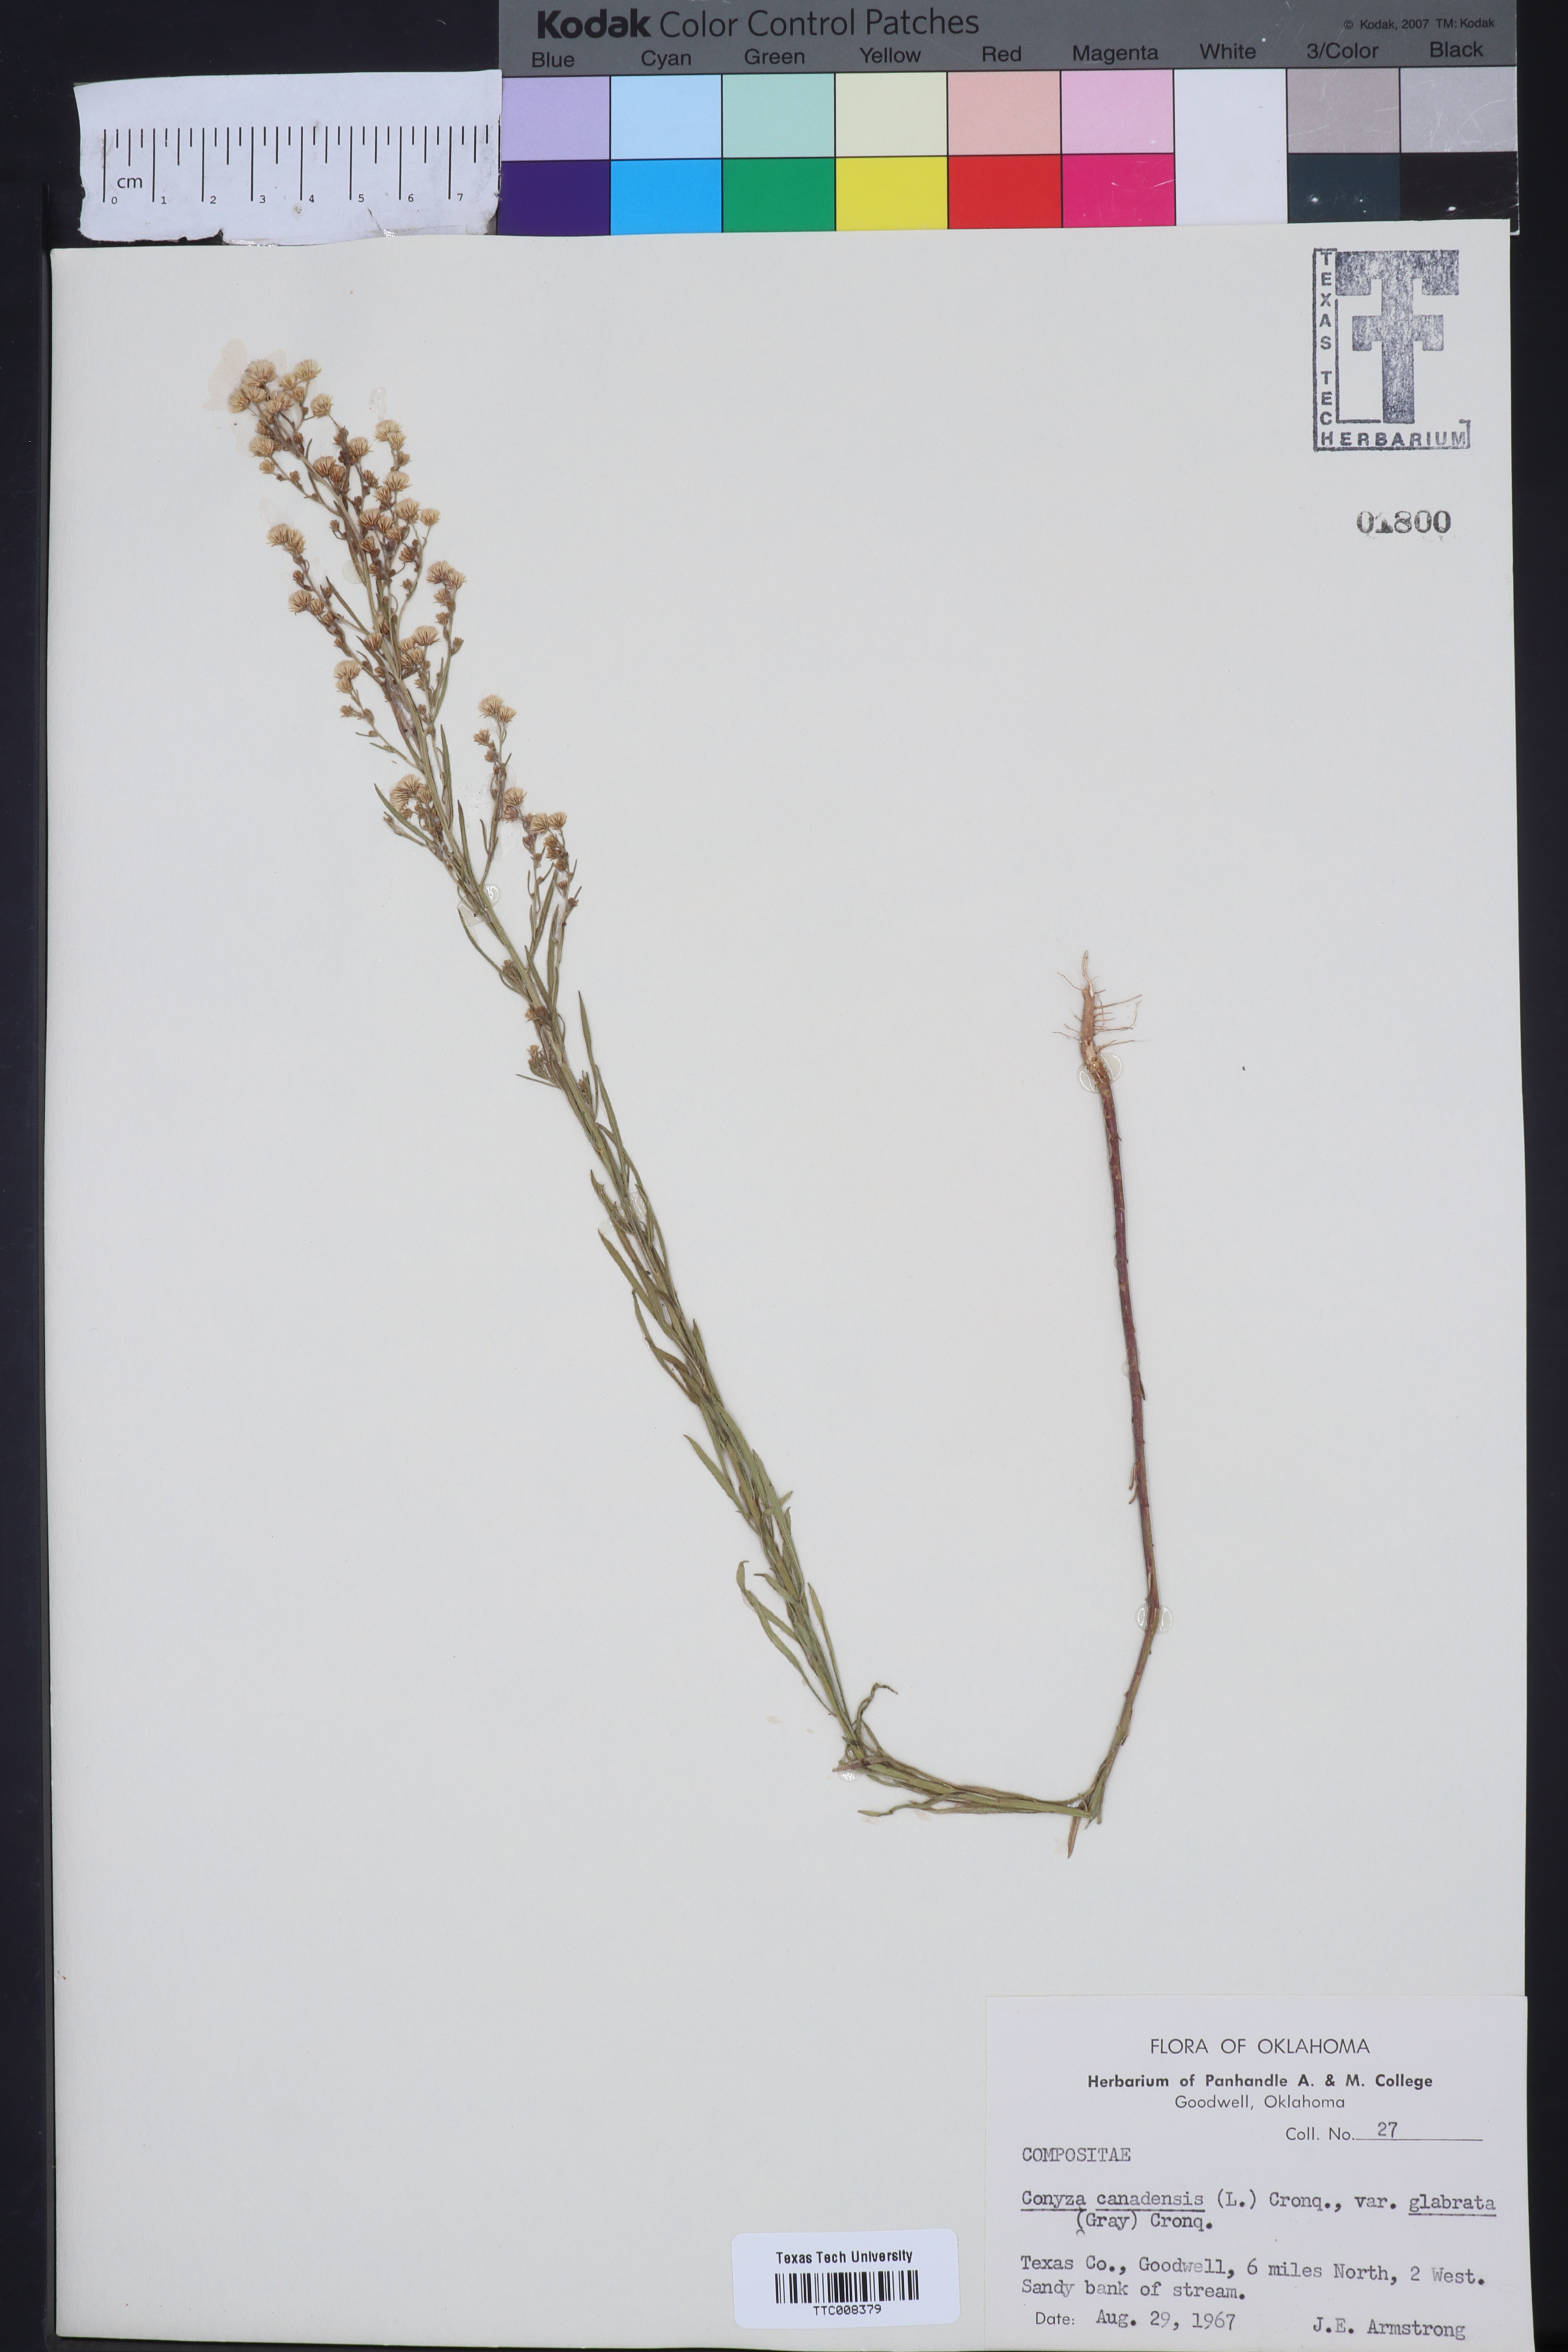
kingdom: Plantae
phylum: Tracheophyta
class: Magnoliopsida
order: Asterales
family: Asteraceae
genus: Erigeron
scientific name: Erigeron canadensis
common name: Canadian fleabane
